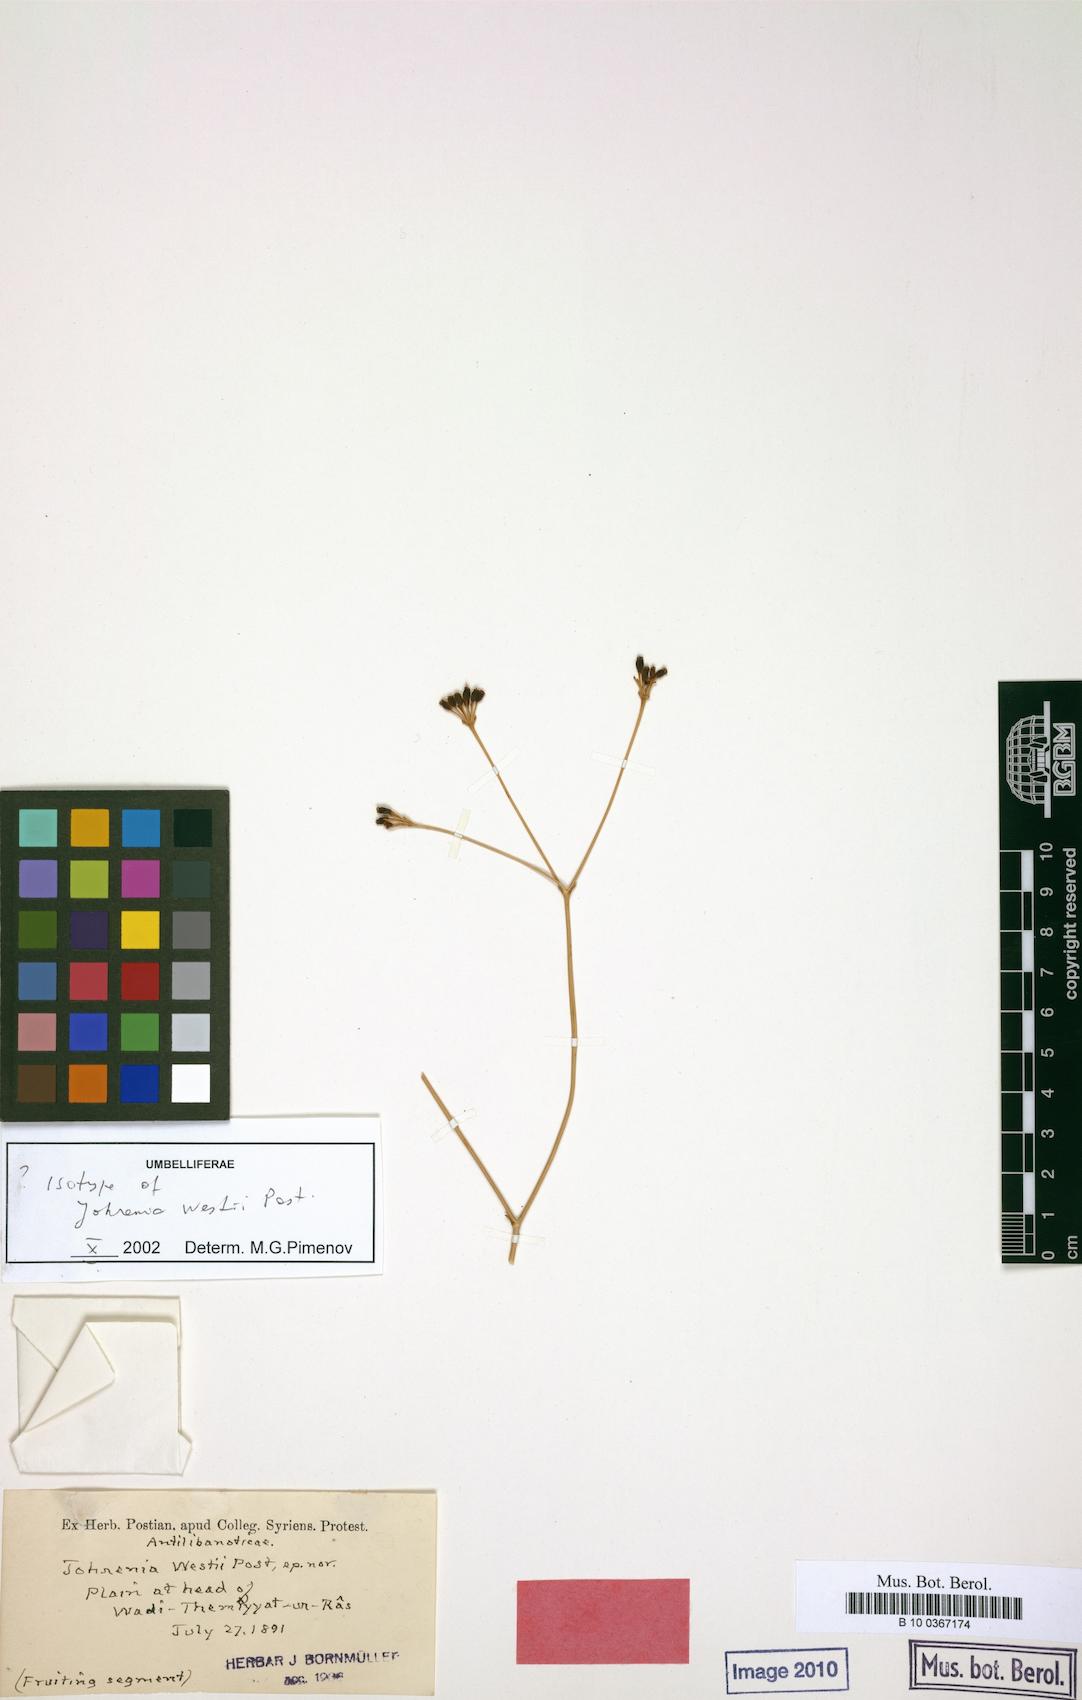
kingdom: Plantae
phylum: Tracheophyta
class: Magnoliopsida
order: Apiales
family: Apiaceae
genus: Ferulago
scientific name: Ferulago westii
